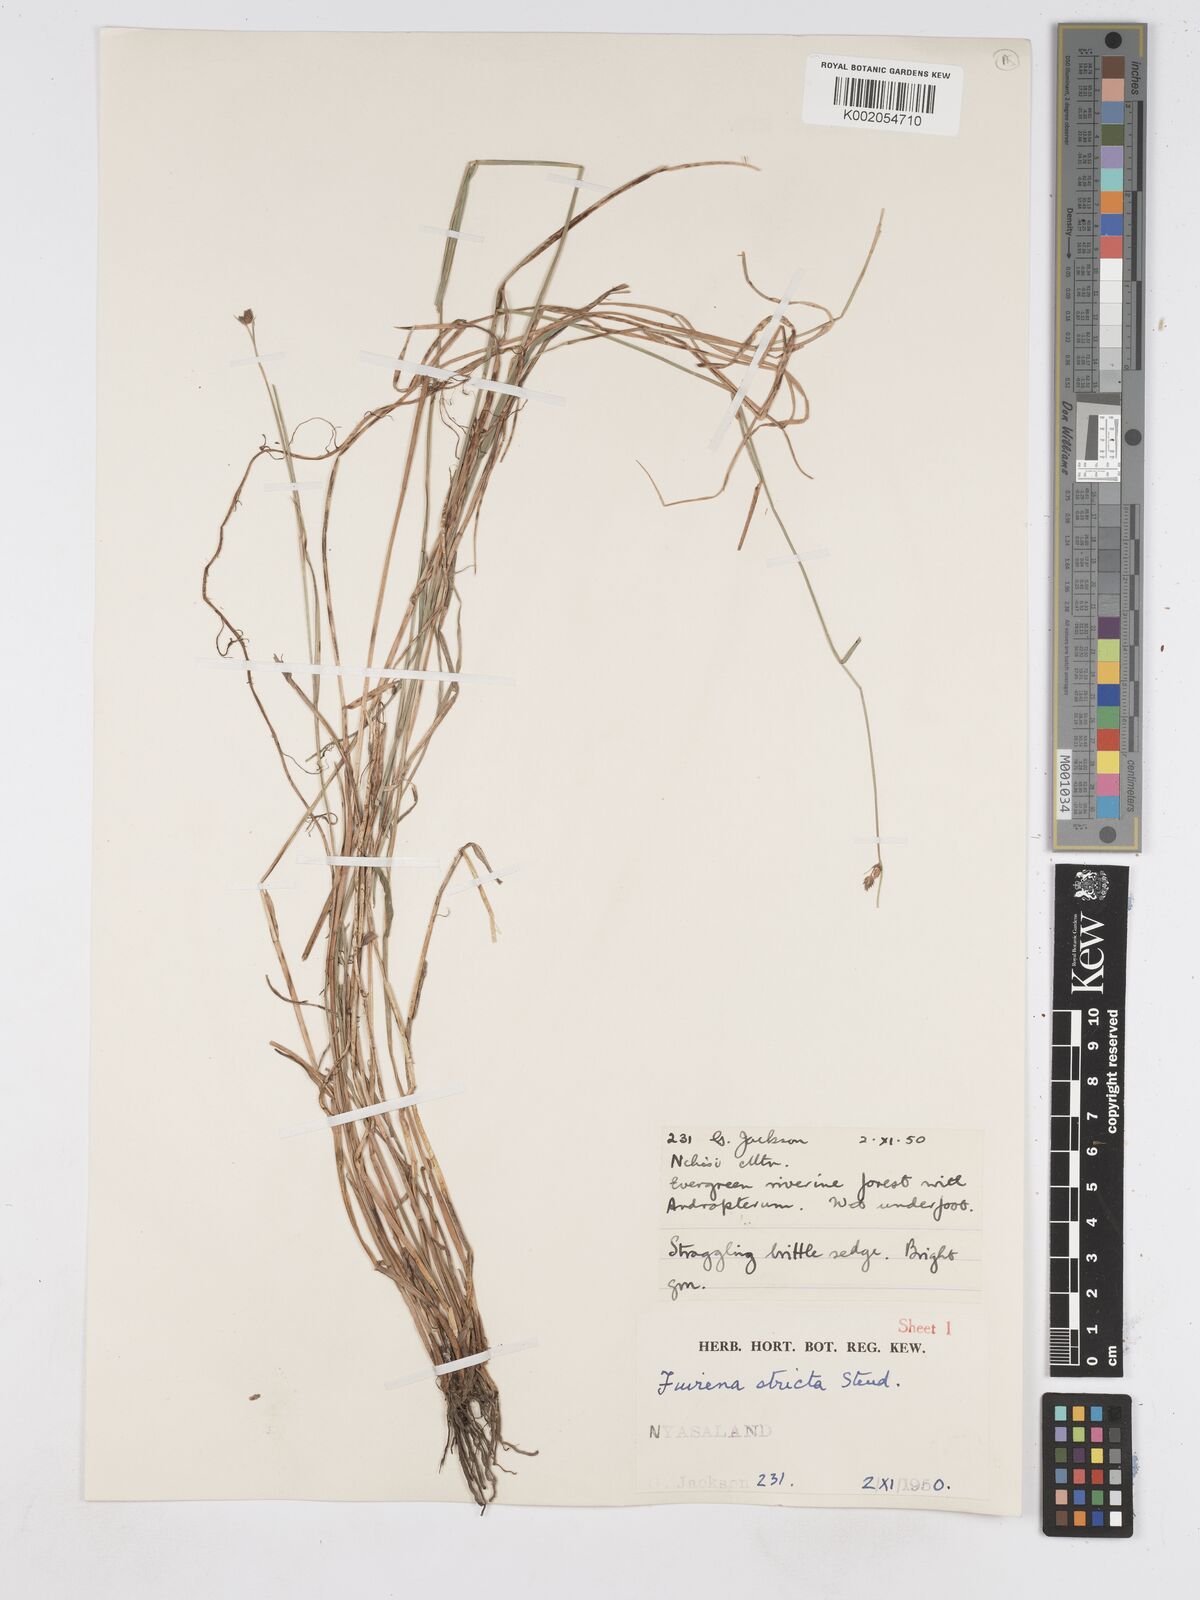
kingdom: Plantae
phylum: Tracheophyta
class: Liliopsida
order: Poales
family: Cyperaceae
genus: Fuirena
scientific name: Fuirena stricta
